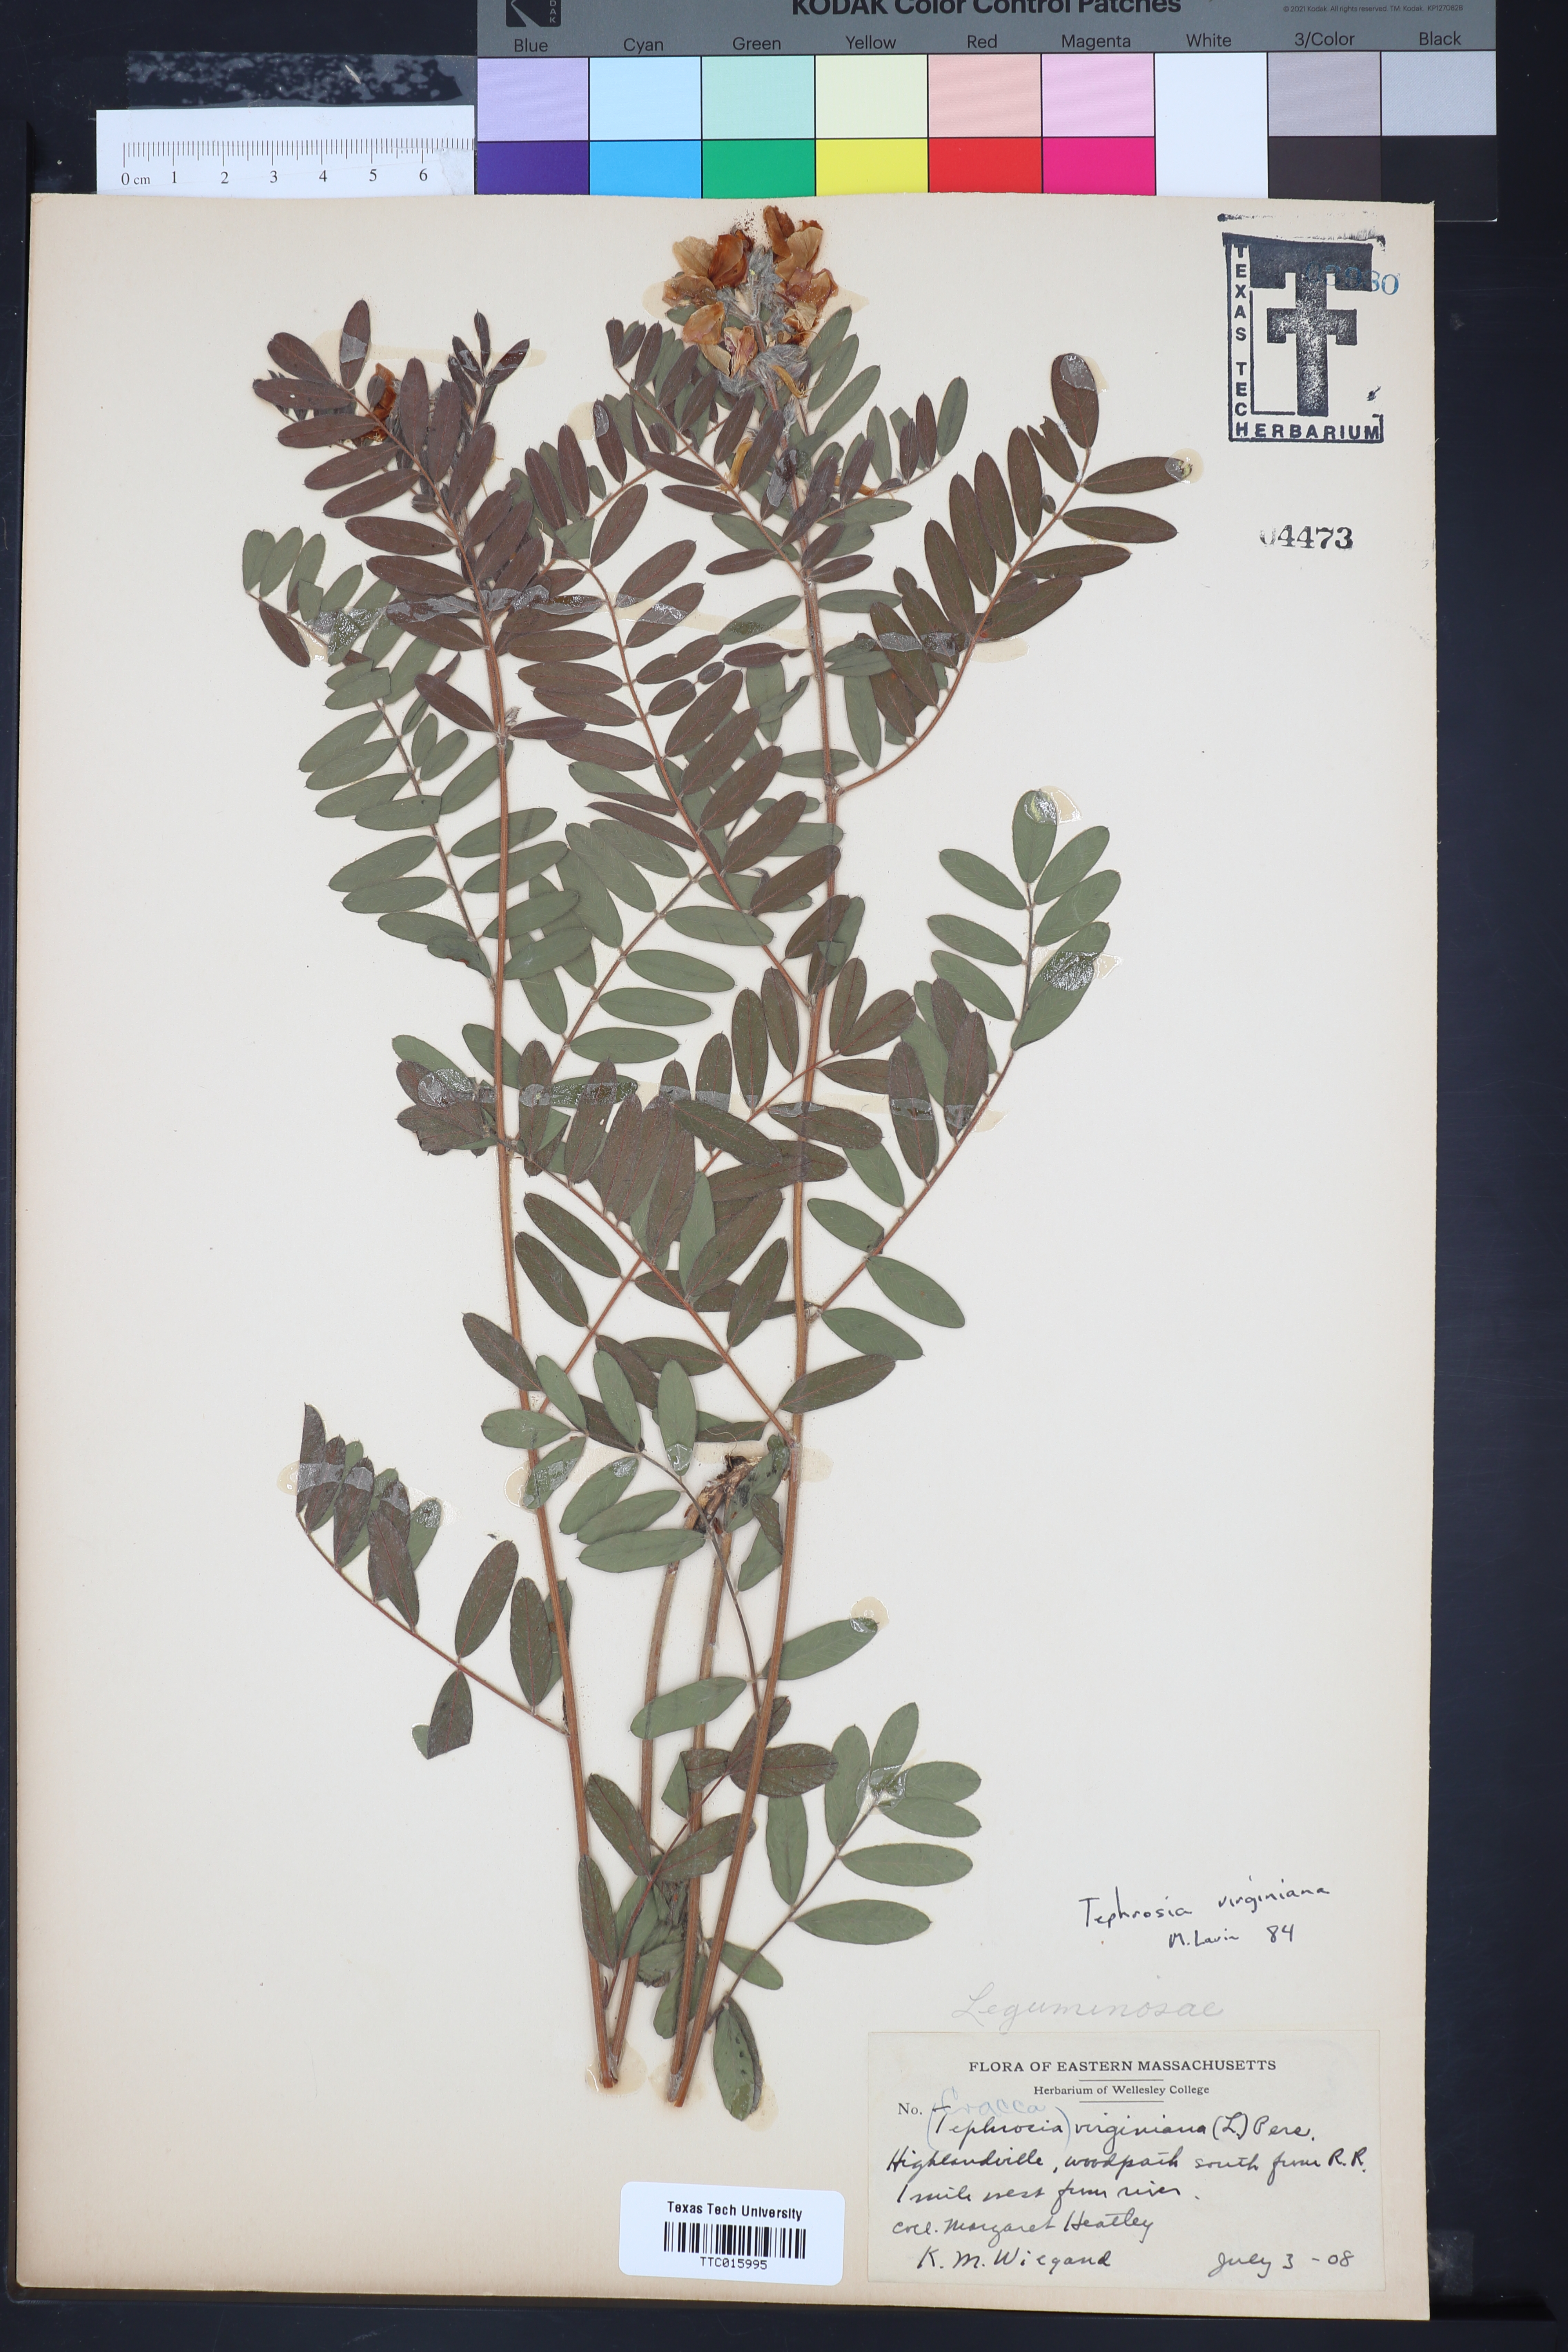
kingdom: Plantae
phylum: Tracheophyta
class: Magnoliopsida
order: Fabales
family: Fabaceae
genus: Tephrosia
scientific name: Tephrosia virginiana
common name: Rabbit-pea
